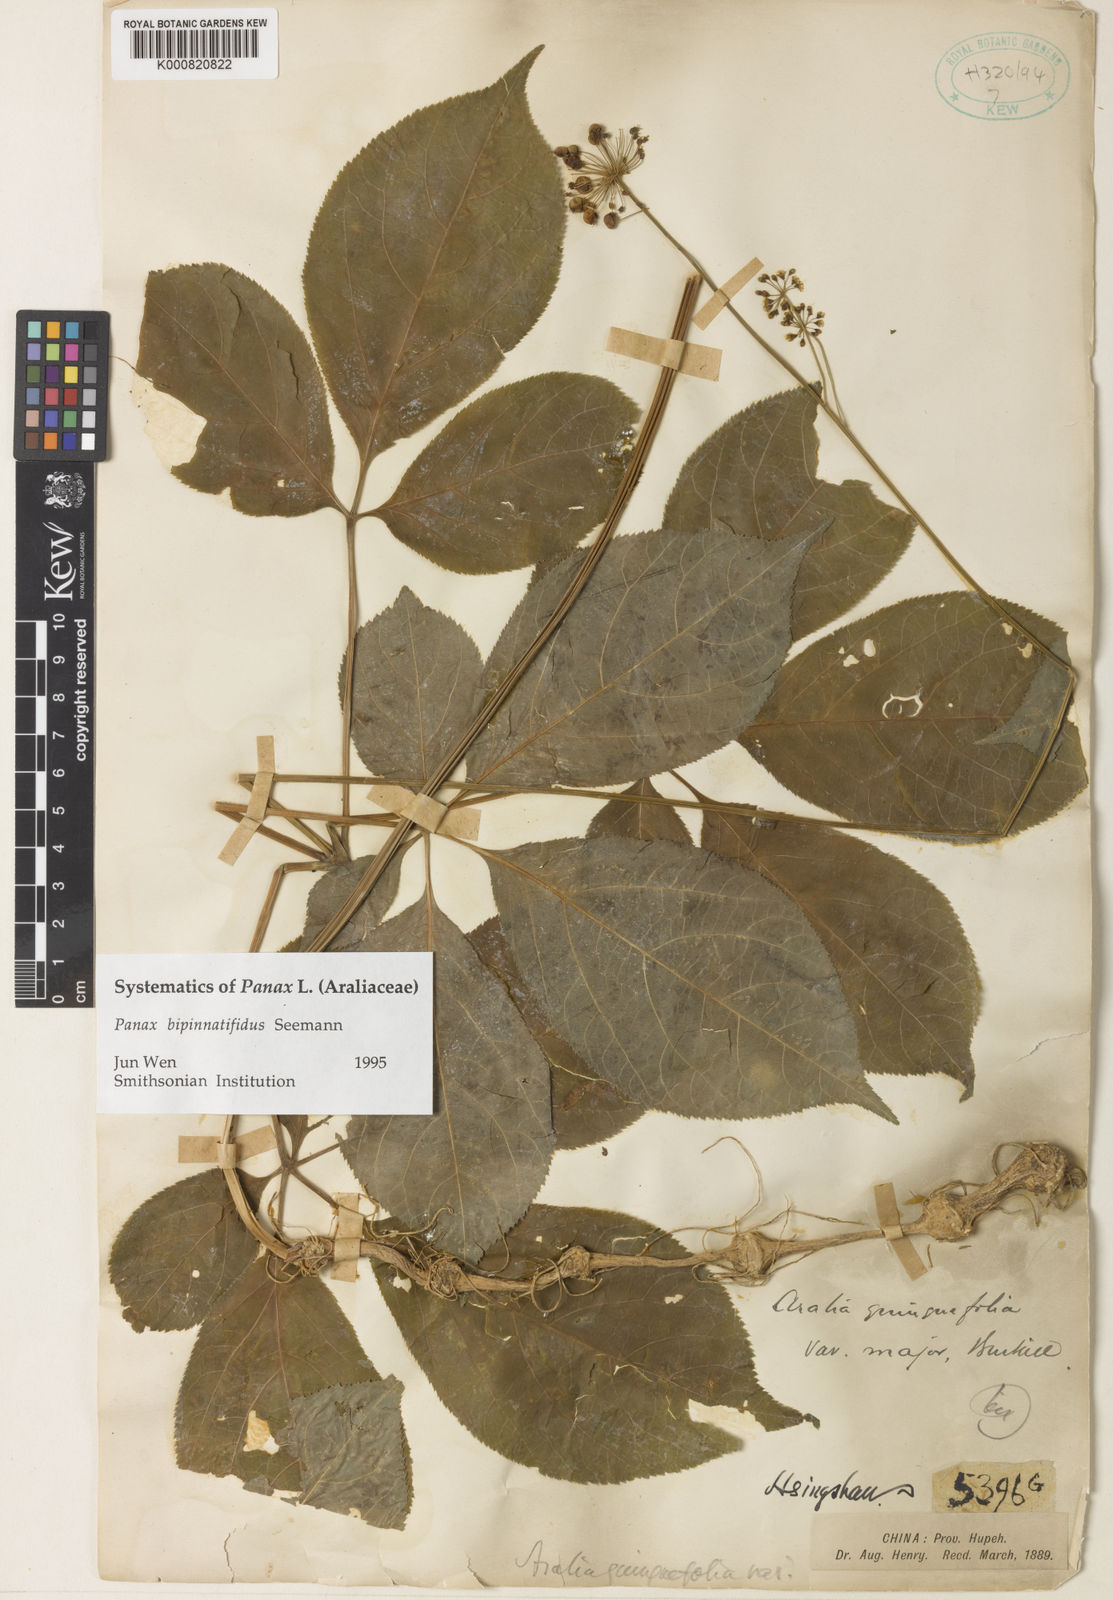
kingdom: Plantae
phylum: Tracheophyta
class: Magnoliopsida
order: Apiales
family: Araliaceae
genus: Panax
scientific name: Panax bipinnatifidus
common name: Feather-leaf bamboo ginseng
